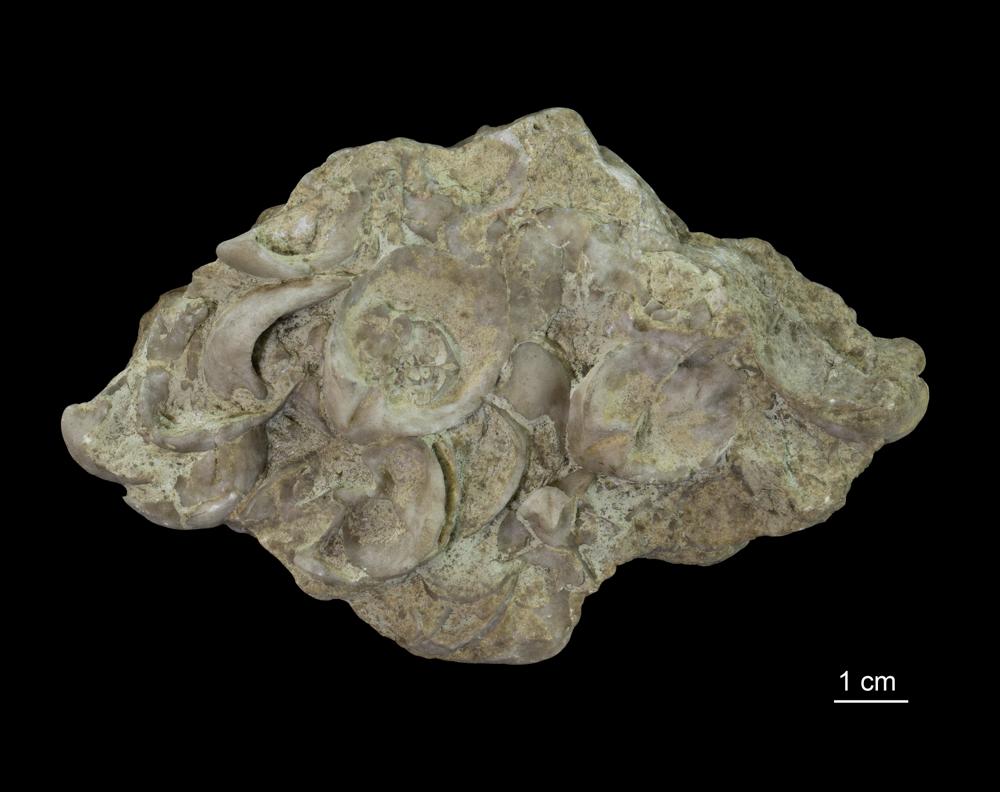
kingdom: Animalia
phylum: Brachiopoda
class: Rhynchonellata
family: Virgianidae
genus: Borealis
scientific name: Borealis Gypidula borealis
